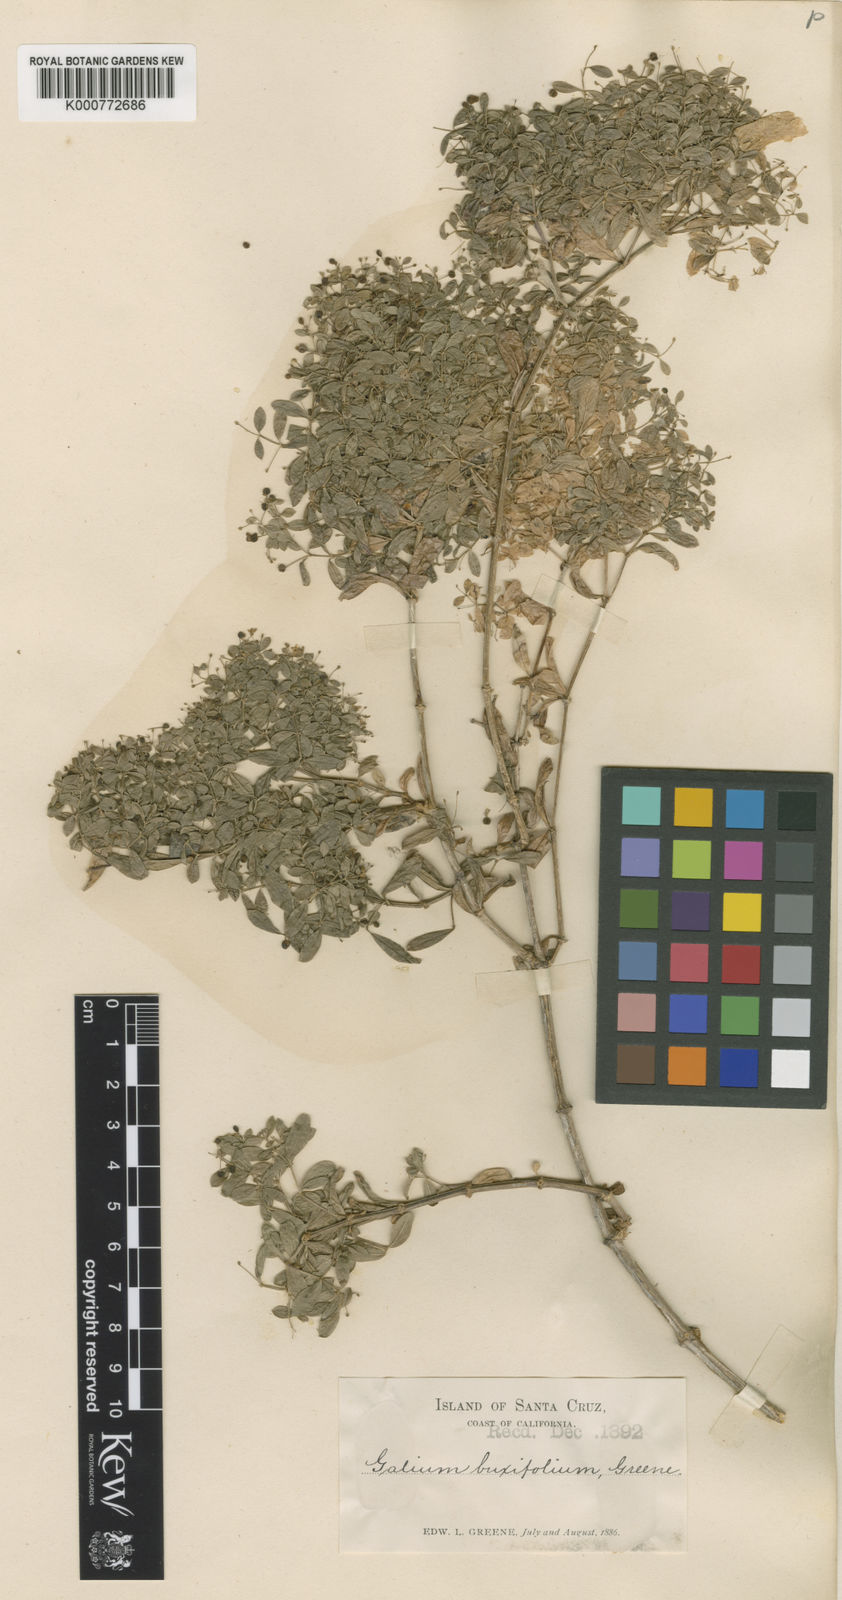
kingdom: Plantae
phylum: Tracheophyta
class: Magnoliopsida
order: Gentianales
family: Rubiaceae
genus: Galium
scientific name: Galium buxifolium
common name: Box bedstraw
